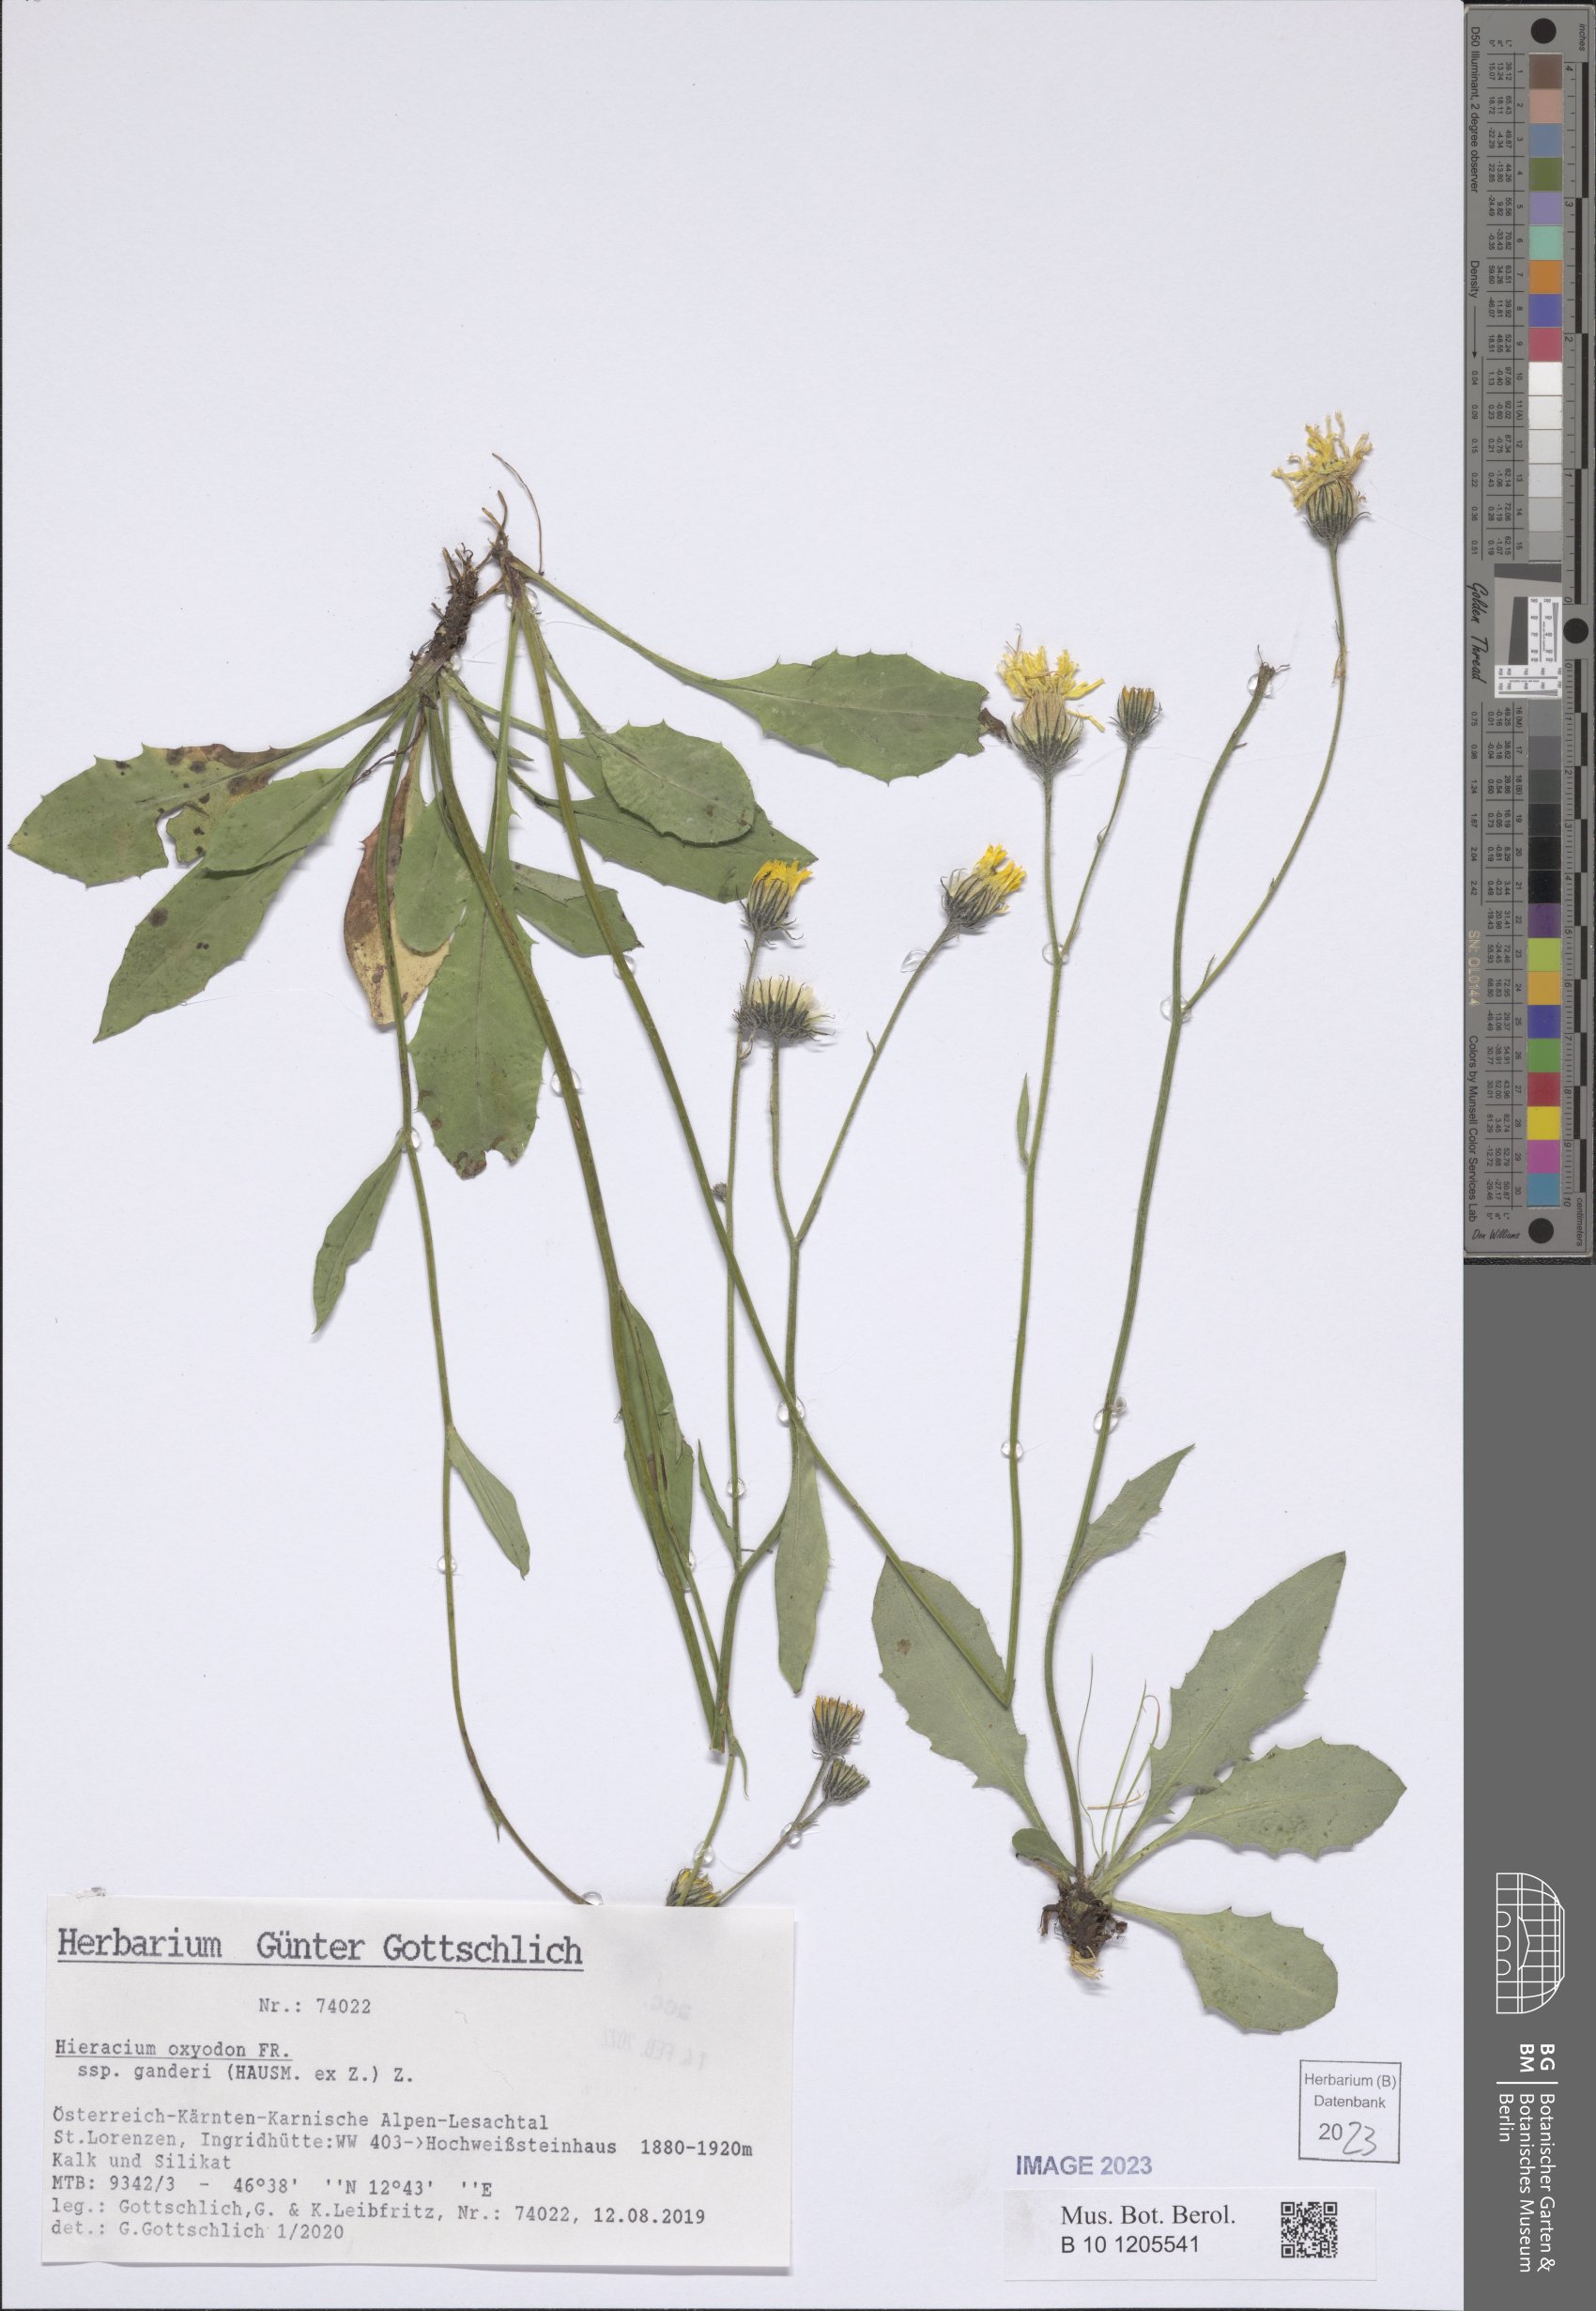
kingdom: Plantae
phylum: Tracheophyta
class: Magnoliopsida
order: Asterales
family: Asteraceae
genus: Hieracium
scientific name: Hieracium oxyodon
